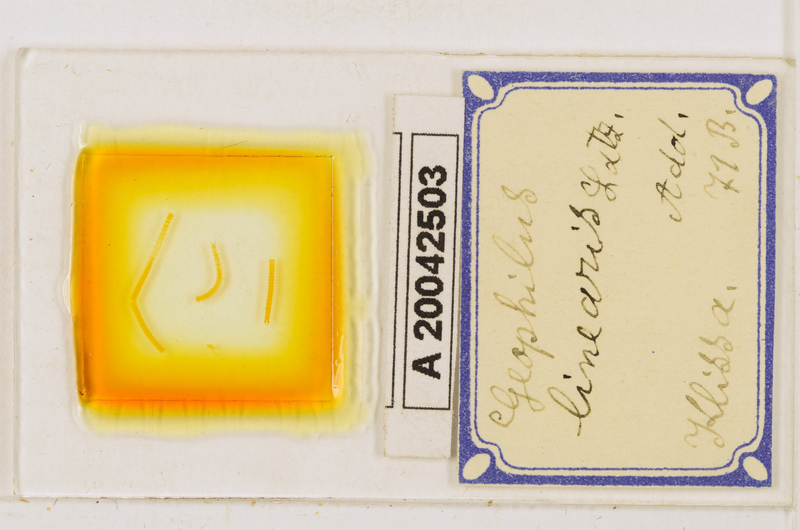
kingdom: Animalia
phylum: Arthropoda
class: Chilopoda
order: Geophilomorpha
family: Geophilidae
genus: Stenotaenia
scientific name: Stenotaenia linearis
